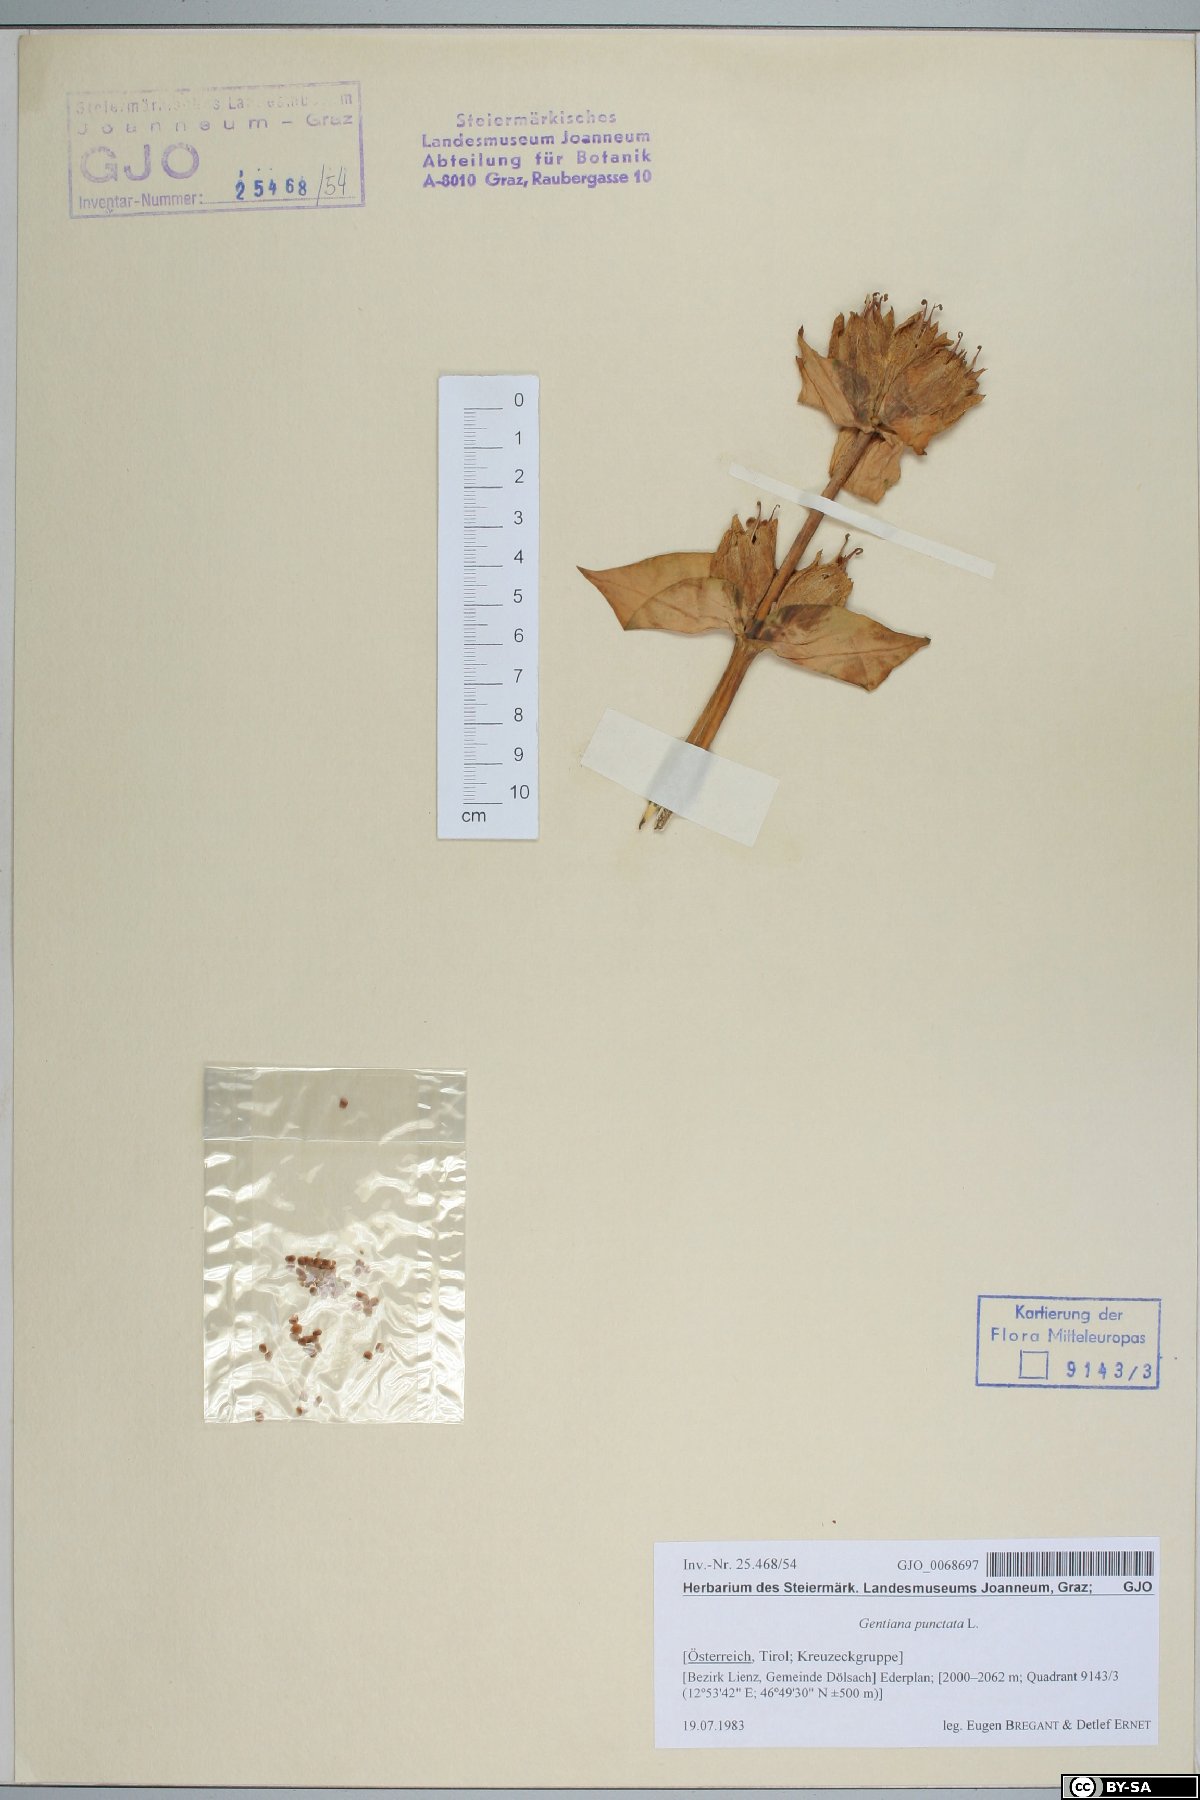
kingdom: Plantae
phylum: Tracheophyta
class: Magnoliopsida
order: Gentianales
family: Gentianaceae
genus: Gentiana
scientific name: Gentiana punctata
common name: Spotted gentian
